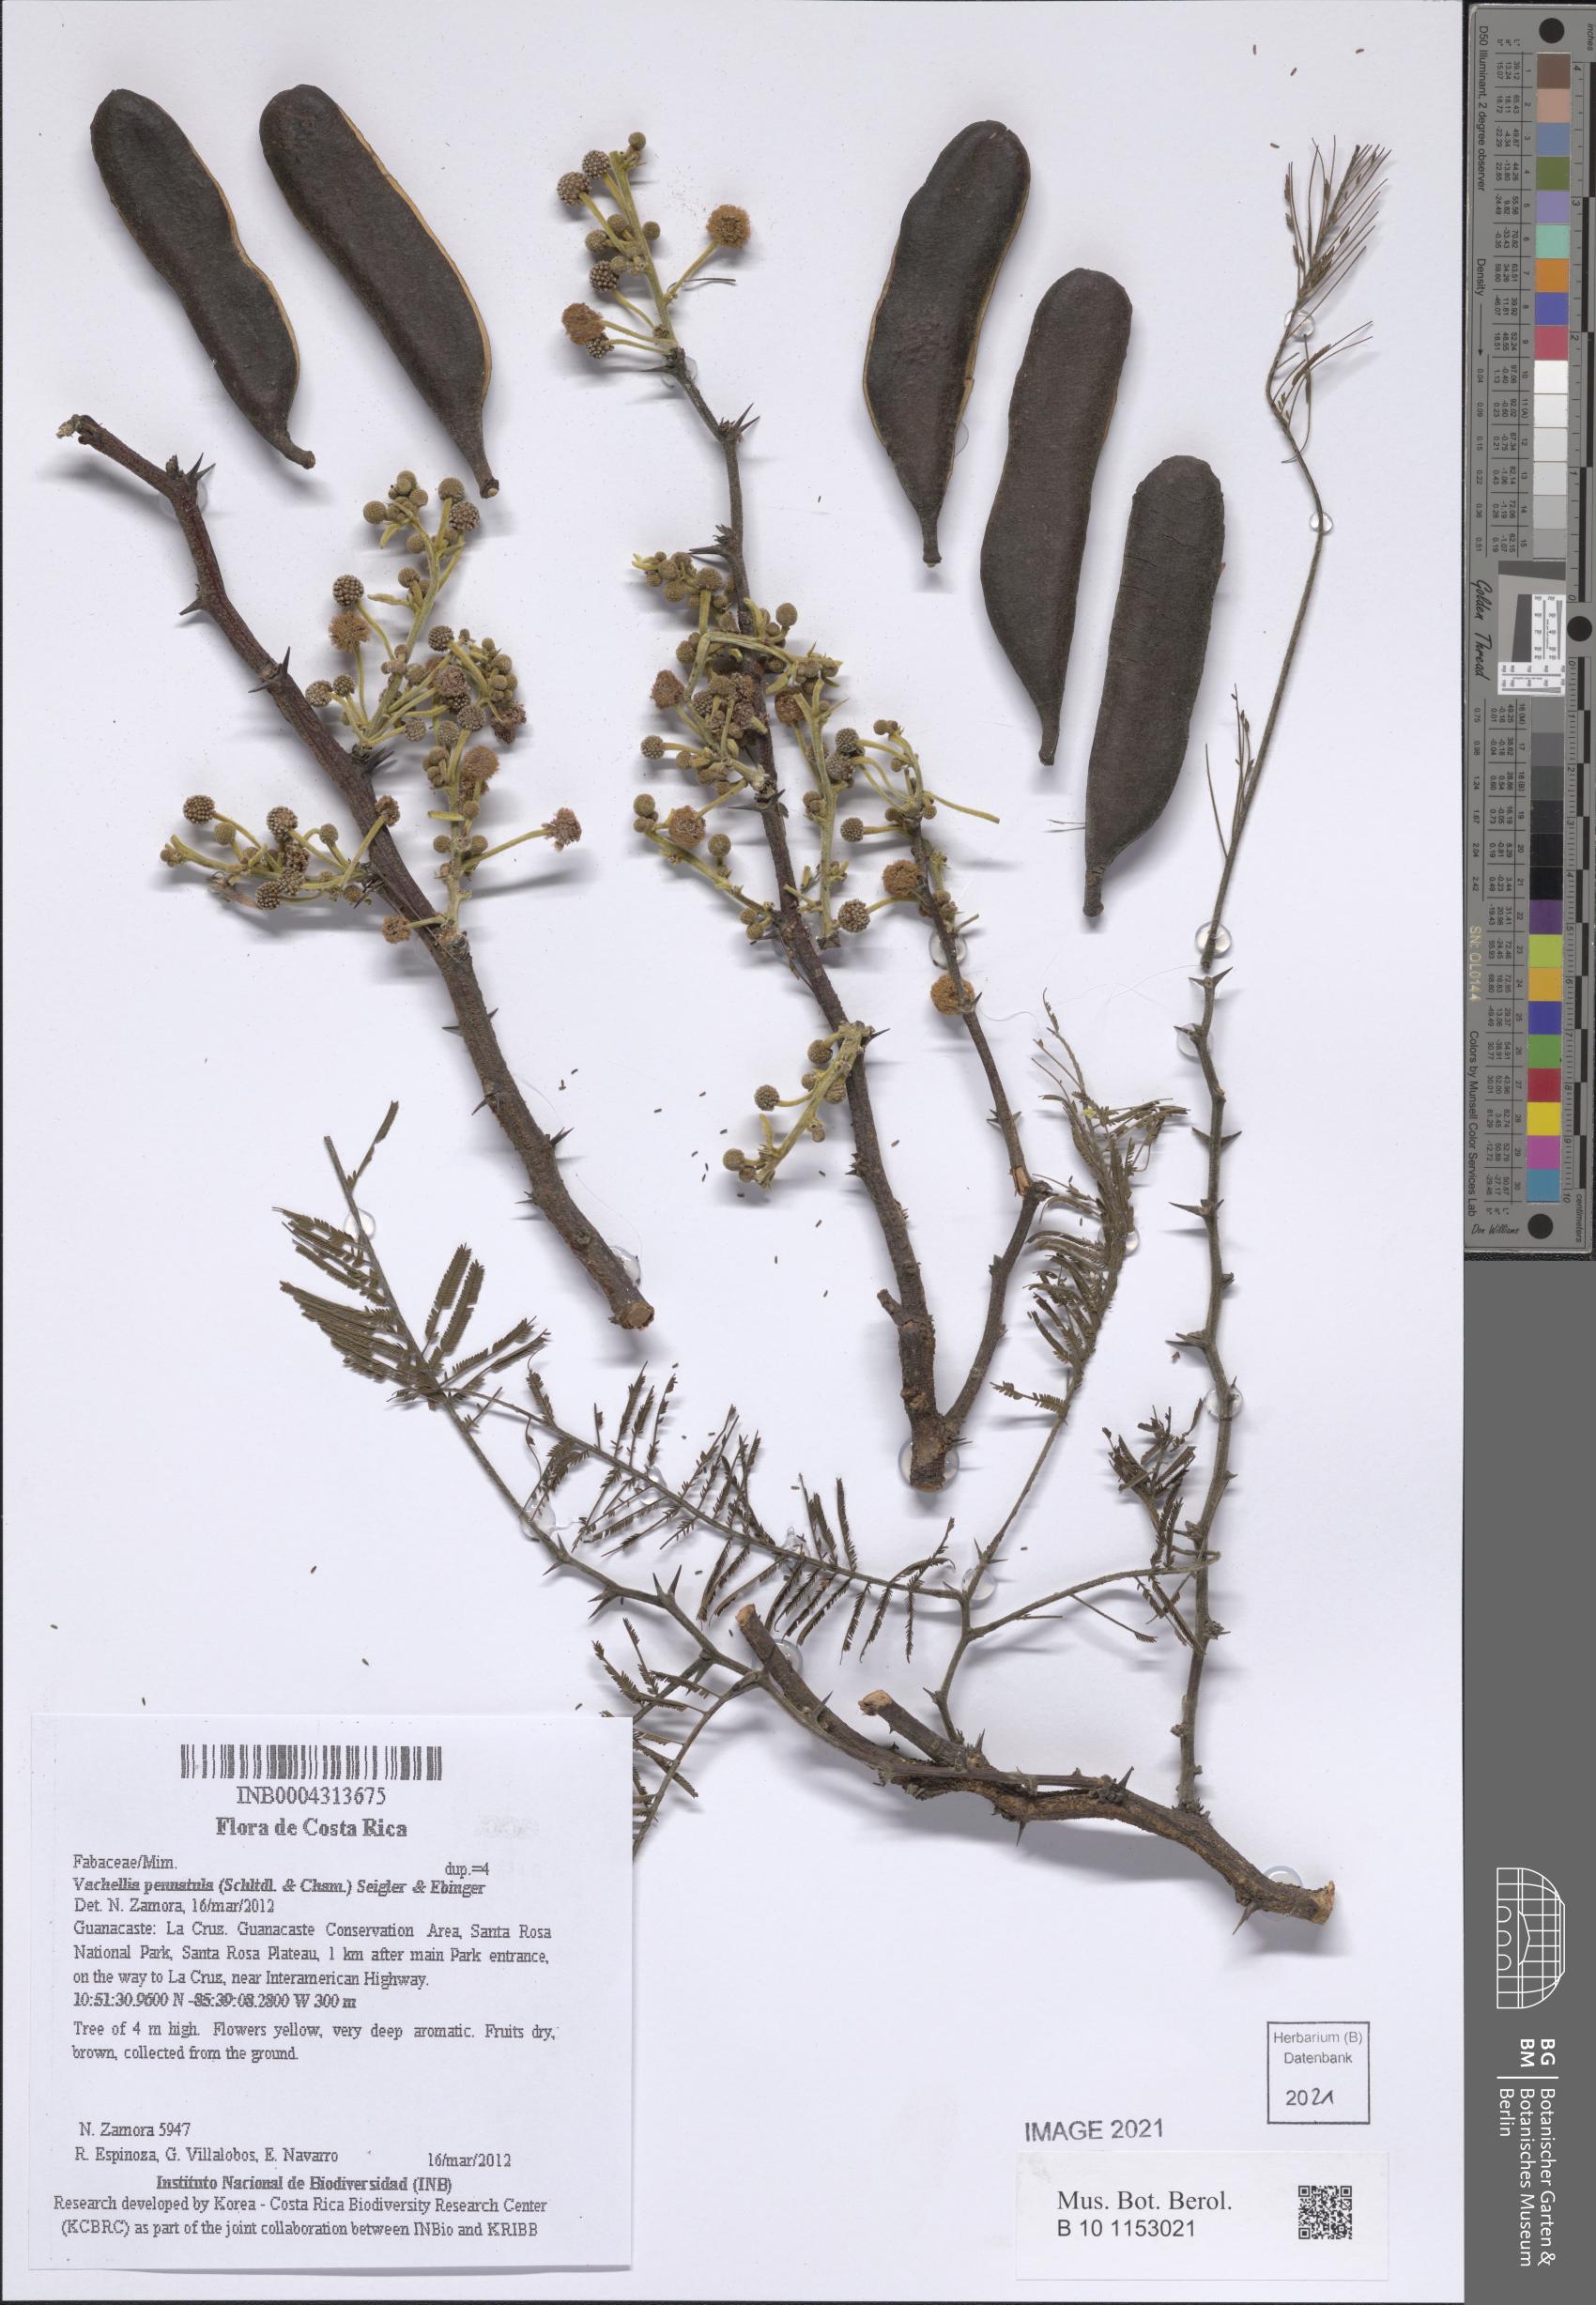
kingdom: Plantae
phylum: Tracheophyta
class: Magnoliopsida
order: Fabales
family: Fabaceae
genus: Vachellia
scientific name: Vachellia pennatula
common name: Fern-leaf acacia
